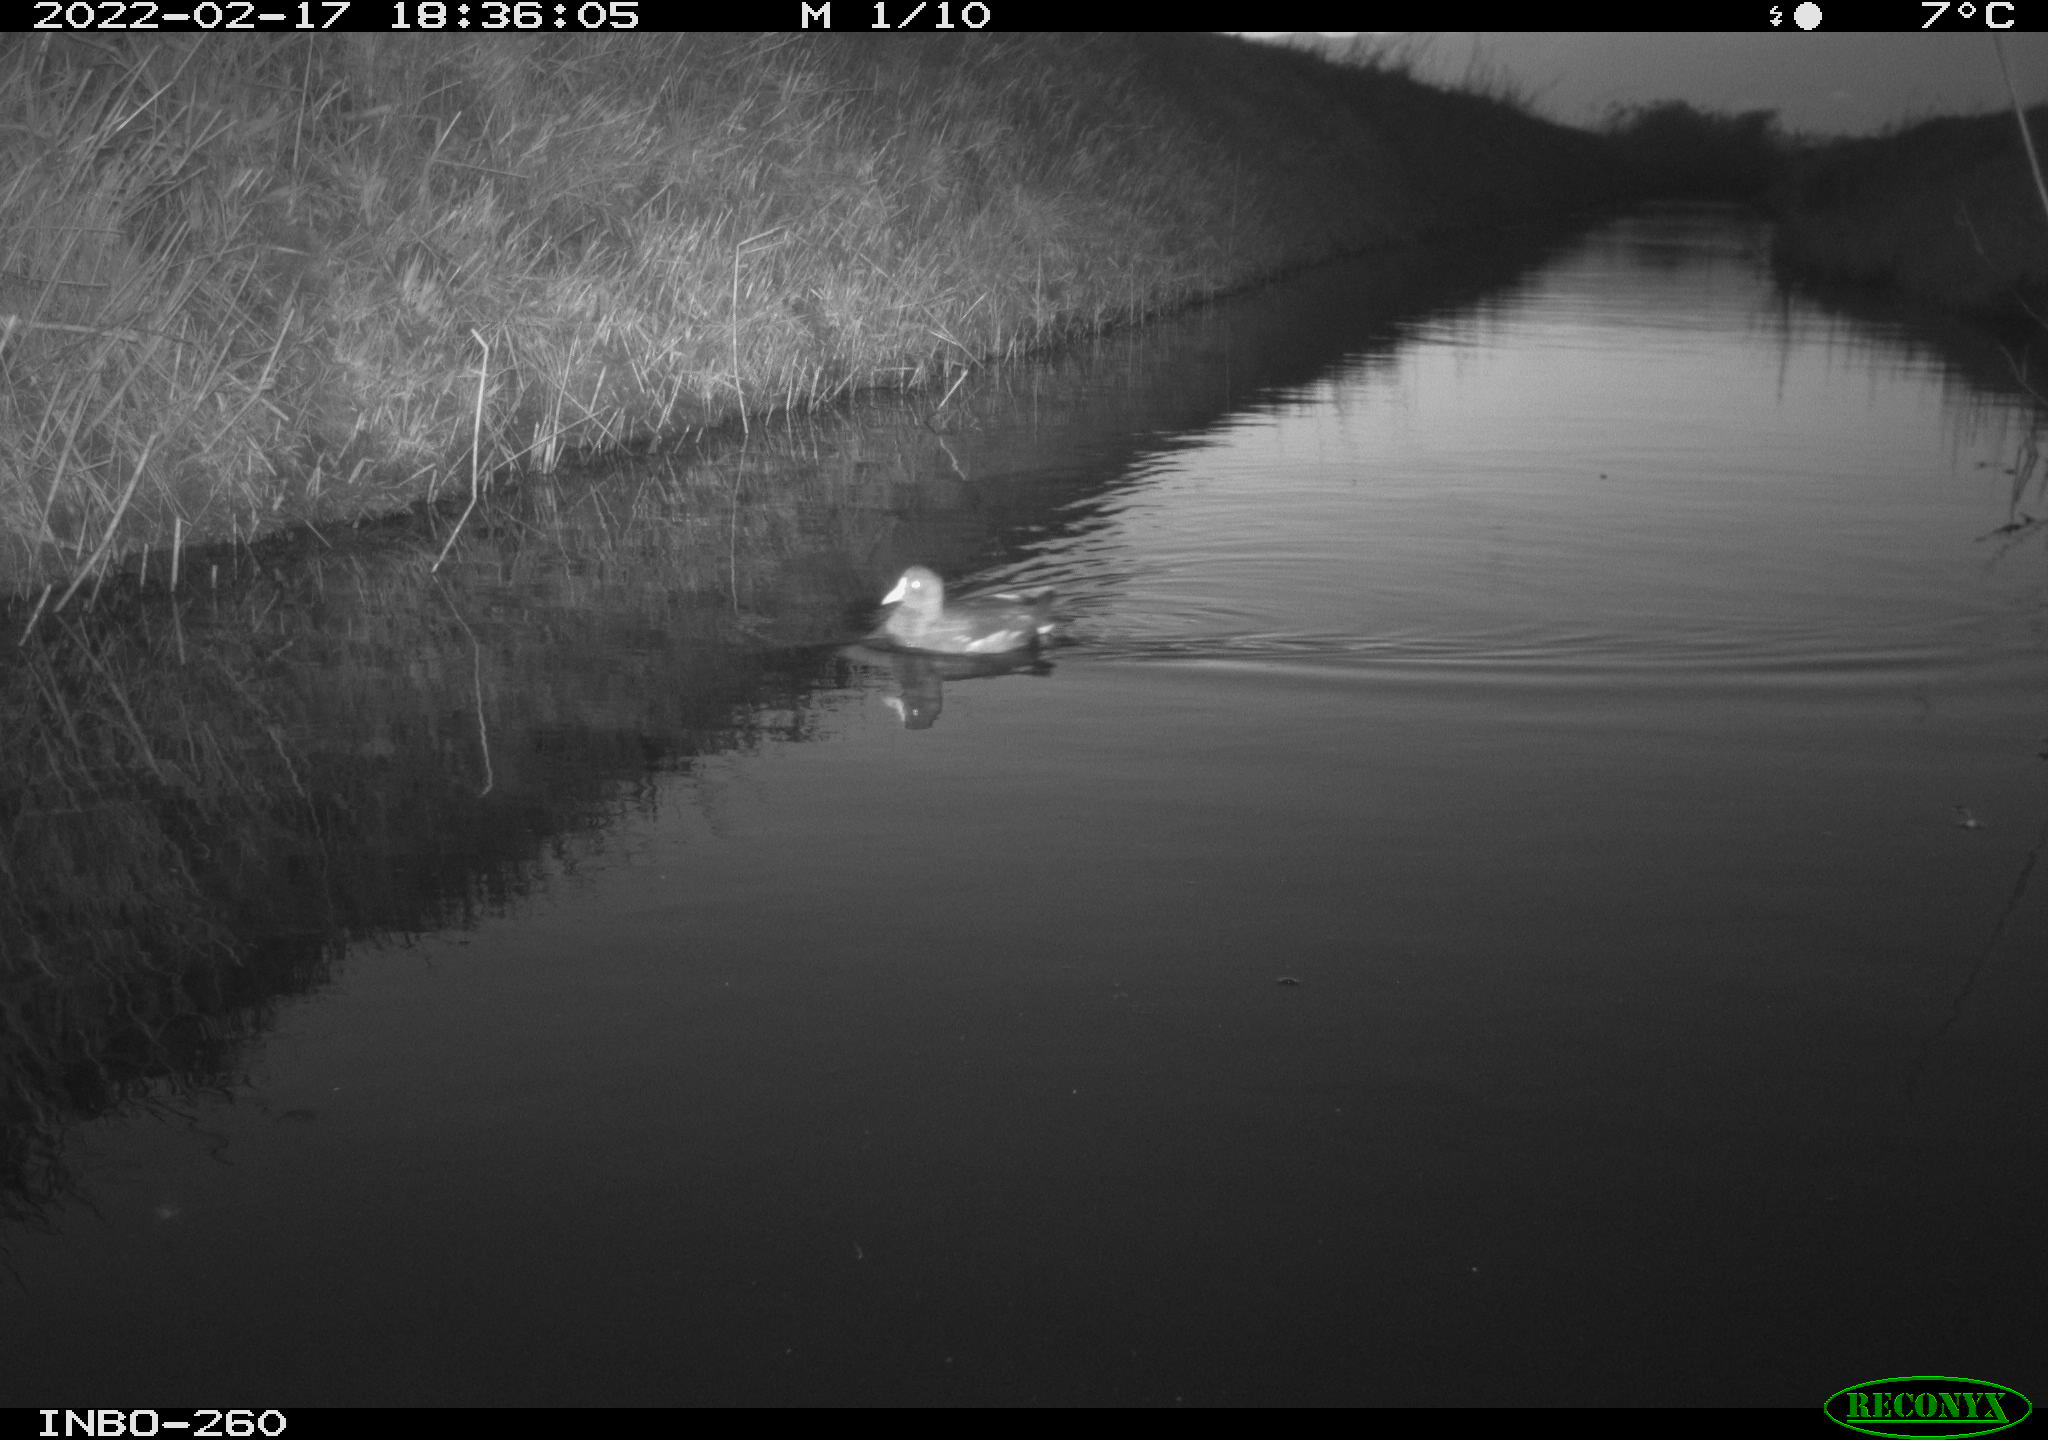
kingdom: Animalia
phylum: Chordata
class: Aves
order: Gruiformes
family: Rallidae
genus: Gallinula
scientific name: Gallinula chloropus
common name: Common moorhen
